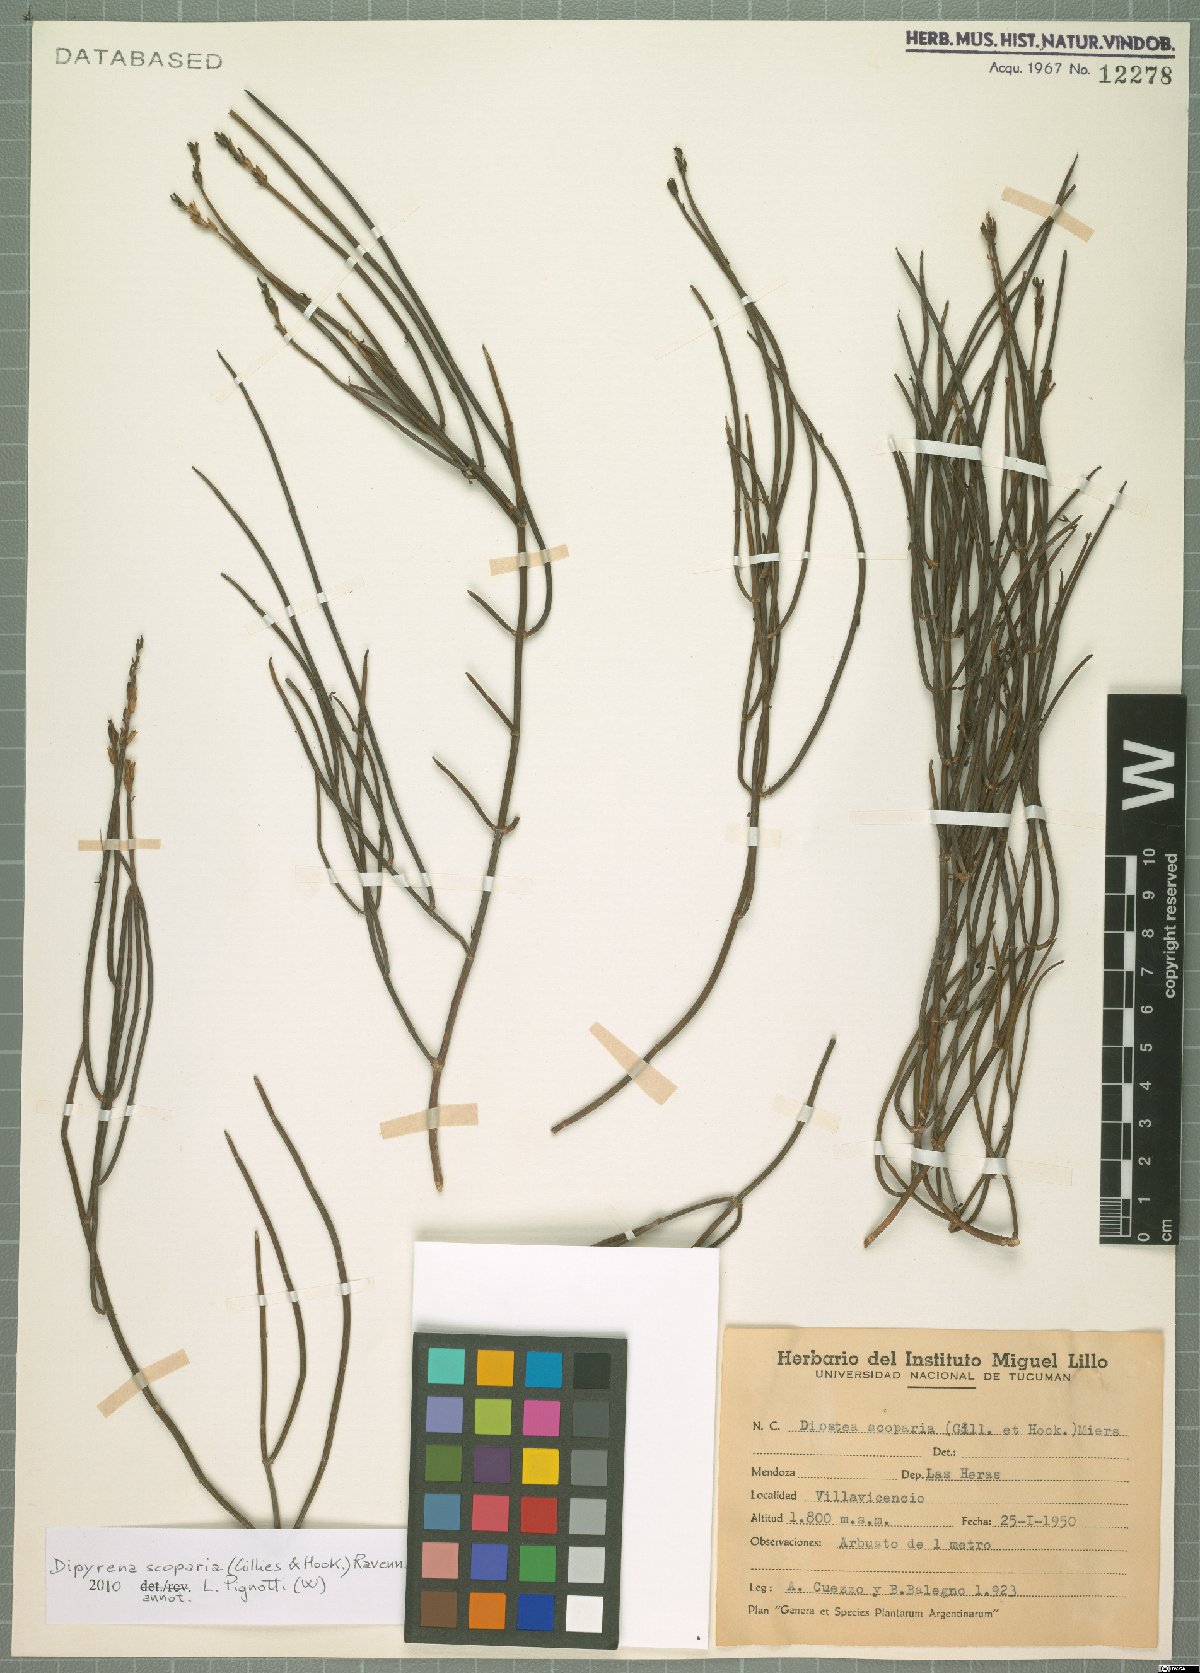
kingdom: Plantae
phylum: Tracheophyta
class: Magnoliopsida
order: Lamiales
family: Verbenaceae
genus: Mulguraea
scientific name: Mulguraea scoparia
